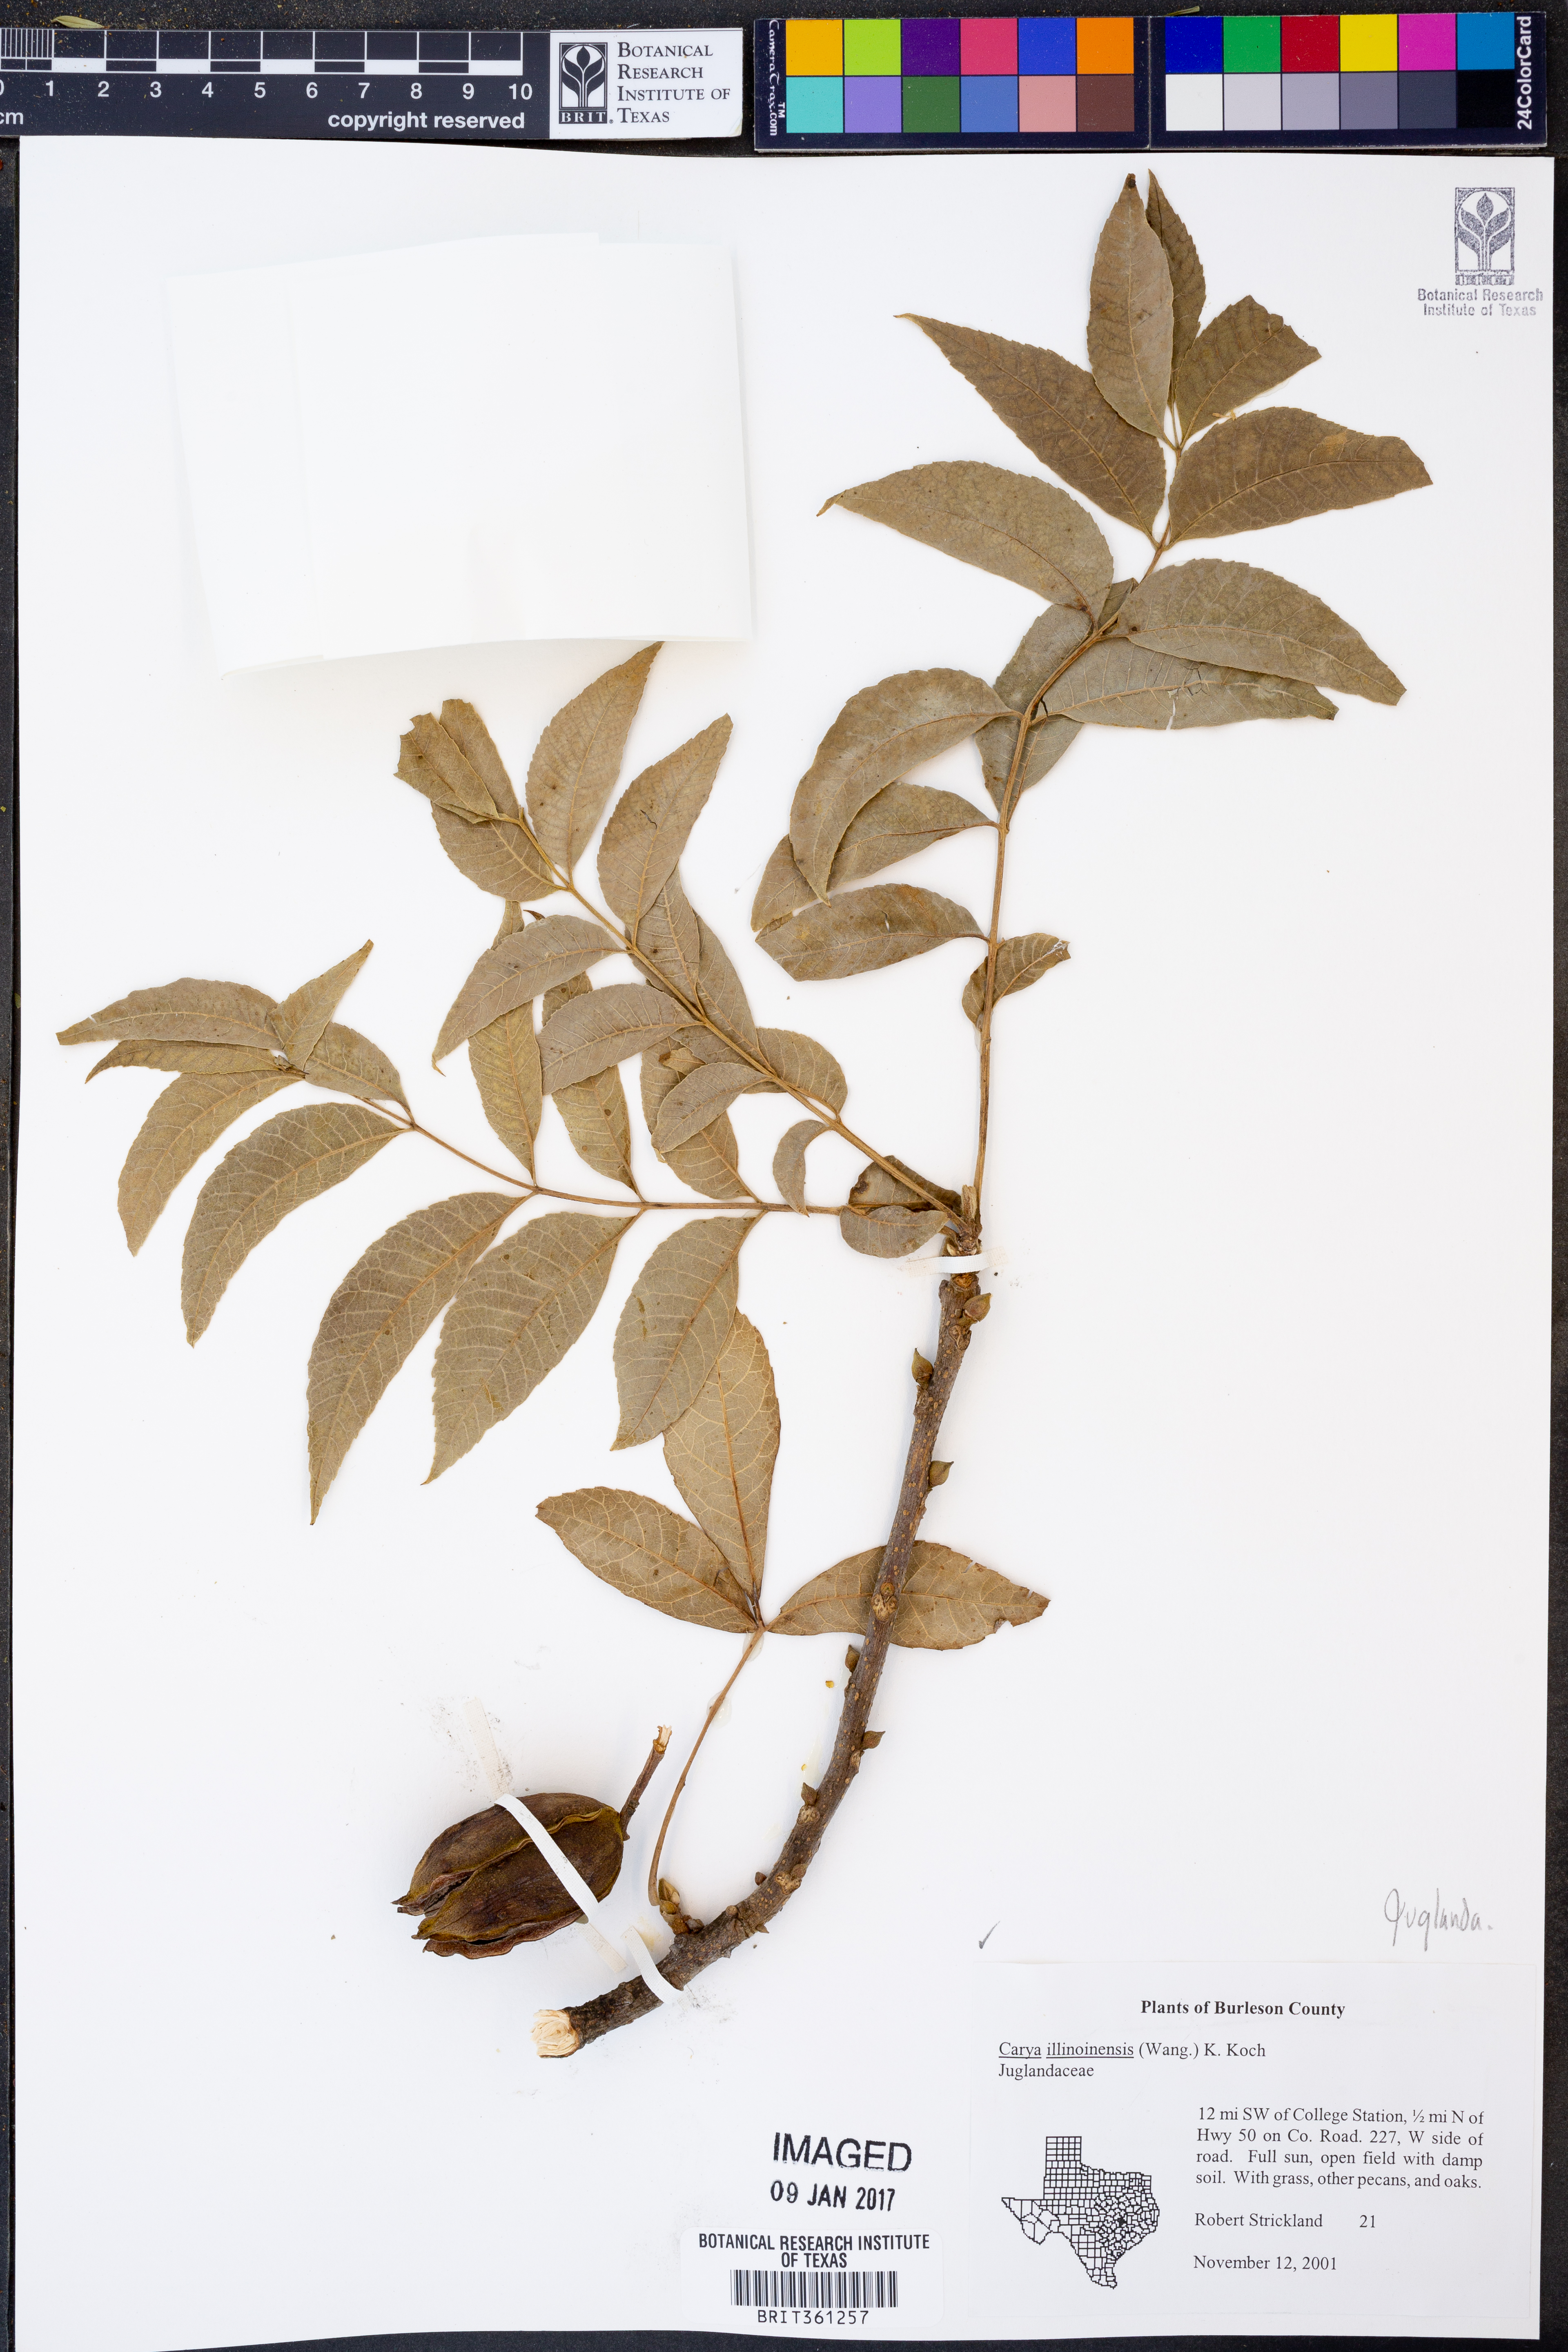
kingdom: Plantae
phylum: Tracheophyta
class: Magnoliopsida
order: Fagales
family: Juglandaceae
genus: Carya
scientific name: Carya illinoinensis
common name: Pecan
